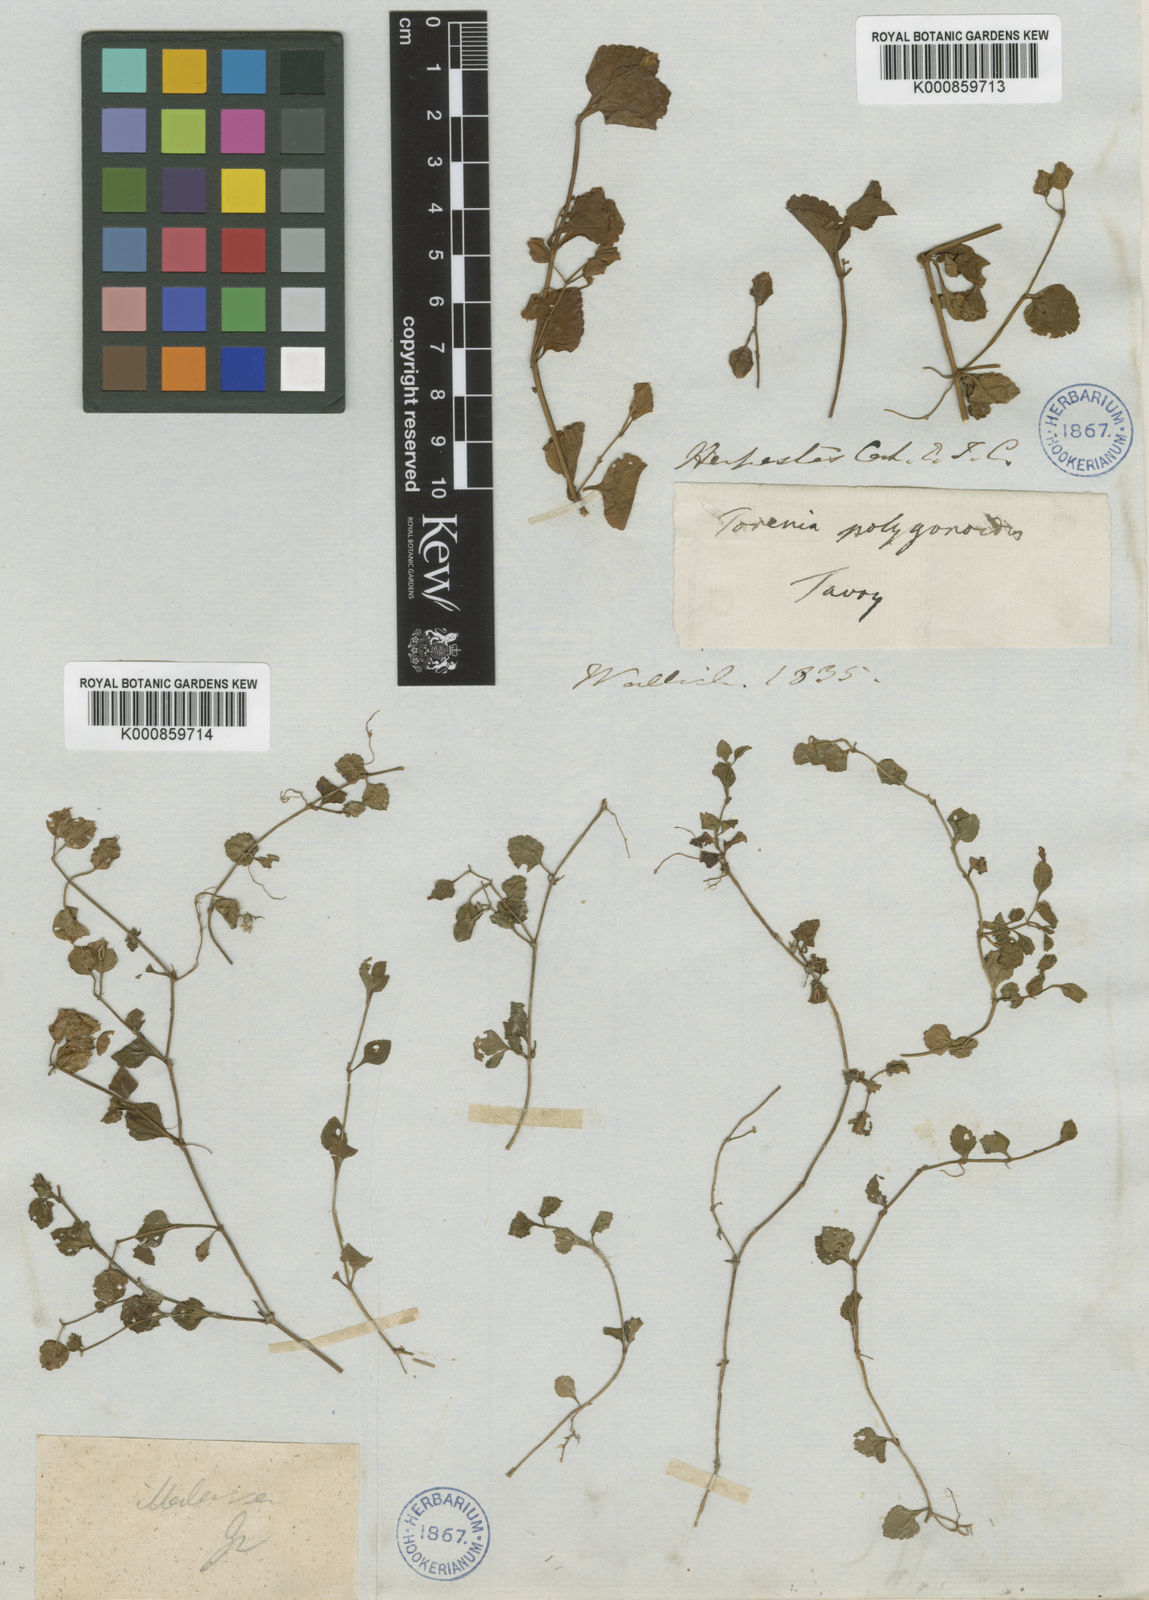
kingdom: Plantae
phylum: Tracheophyta
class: Magnoliopsida
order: Lamiales
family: Linderniaceae
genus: Legazpia
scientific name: Legazpia polygonoides
